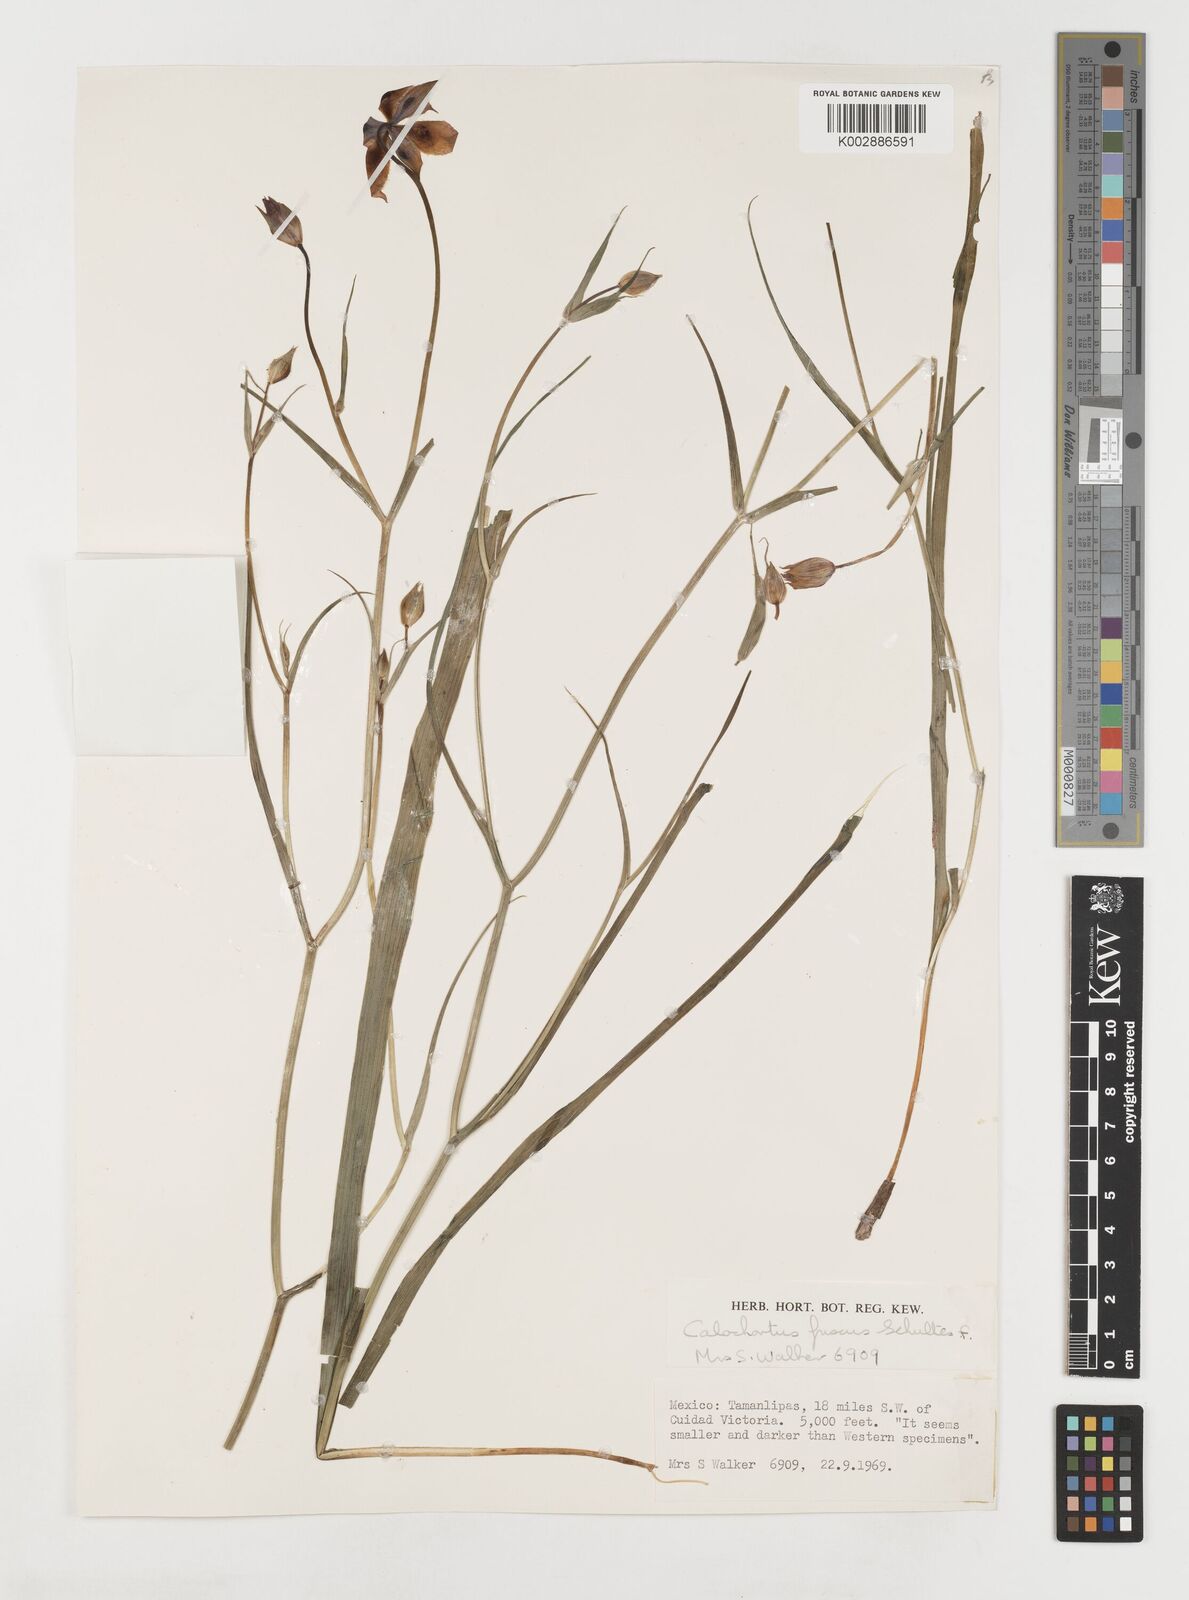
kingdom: Plantae
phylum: Tracheophyta
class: Liliopsida
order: Liliales
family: Liliaceae
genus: Calochortus
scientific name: Calochortus fuscus
